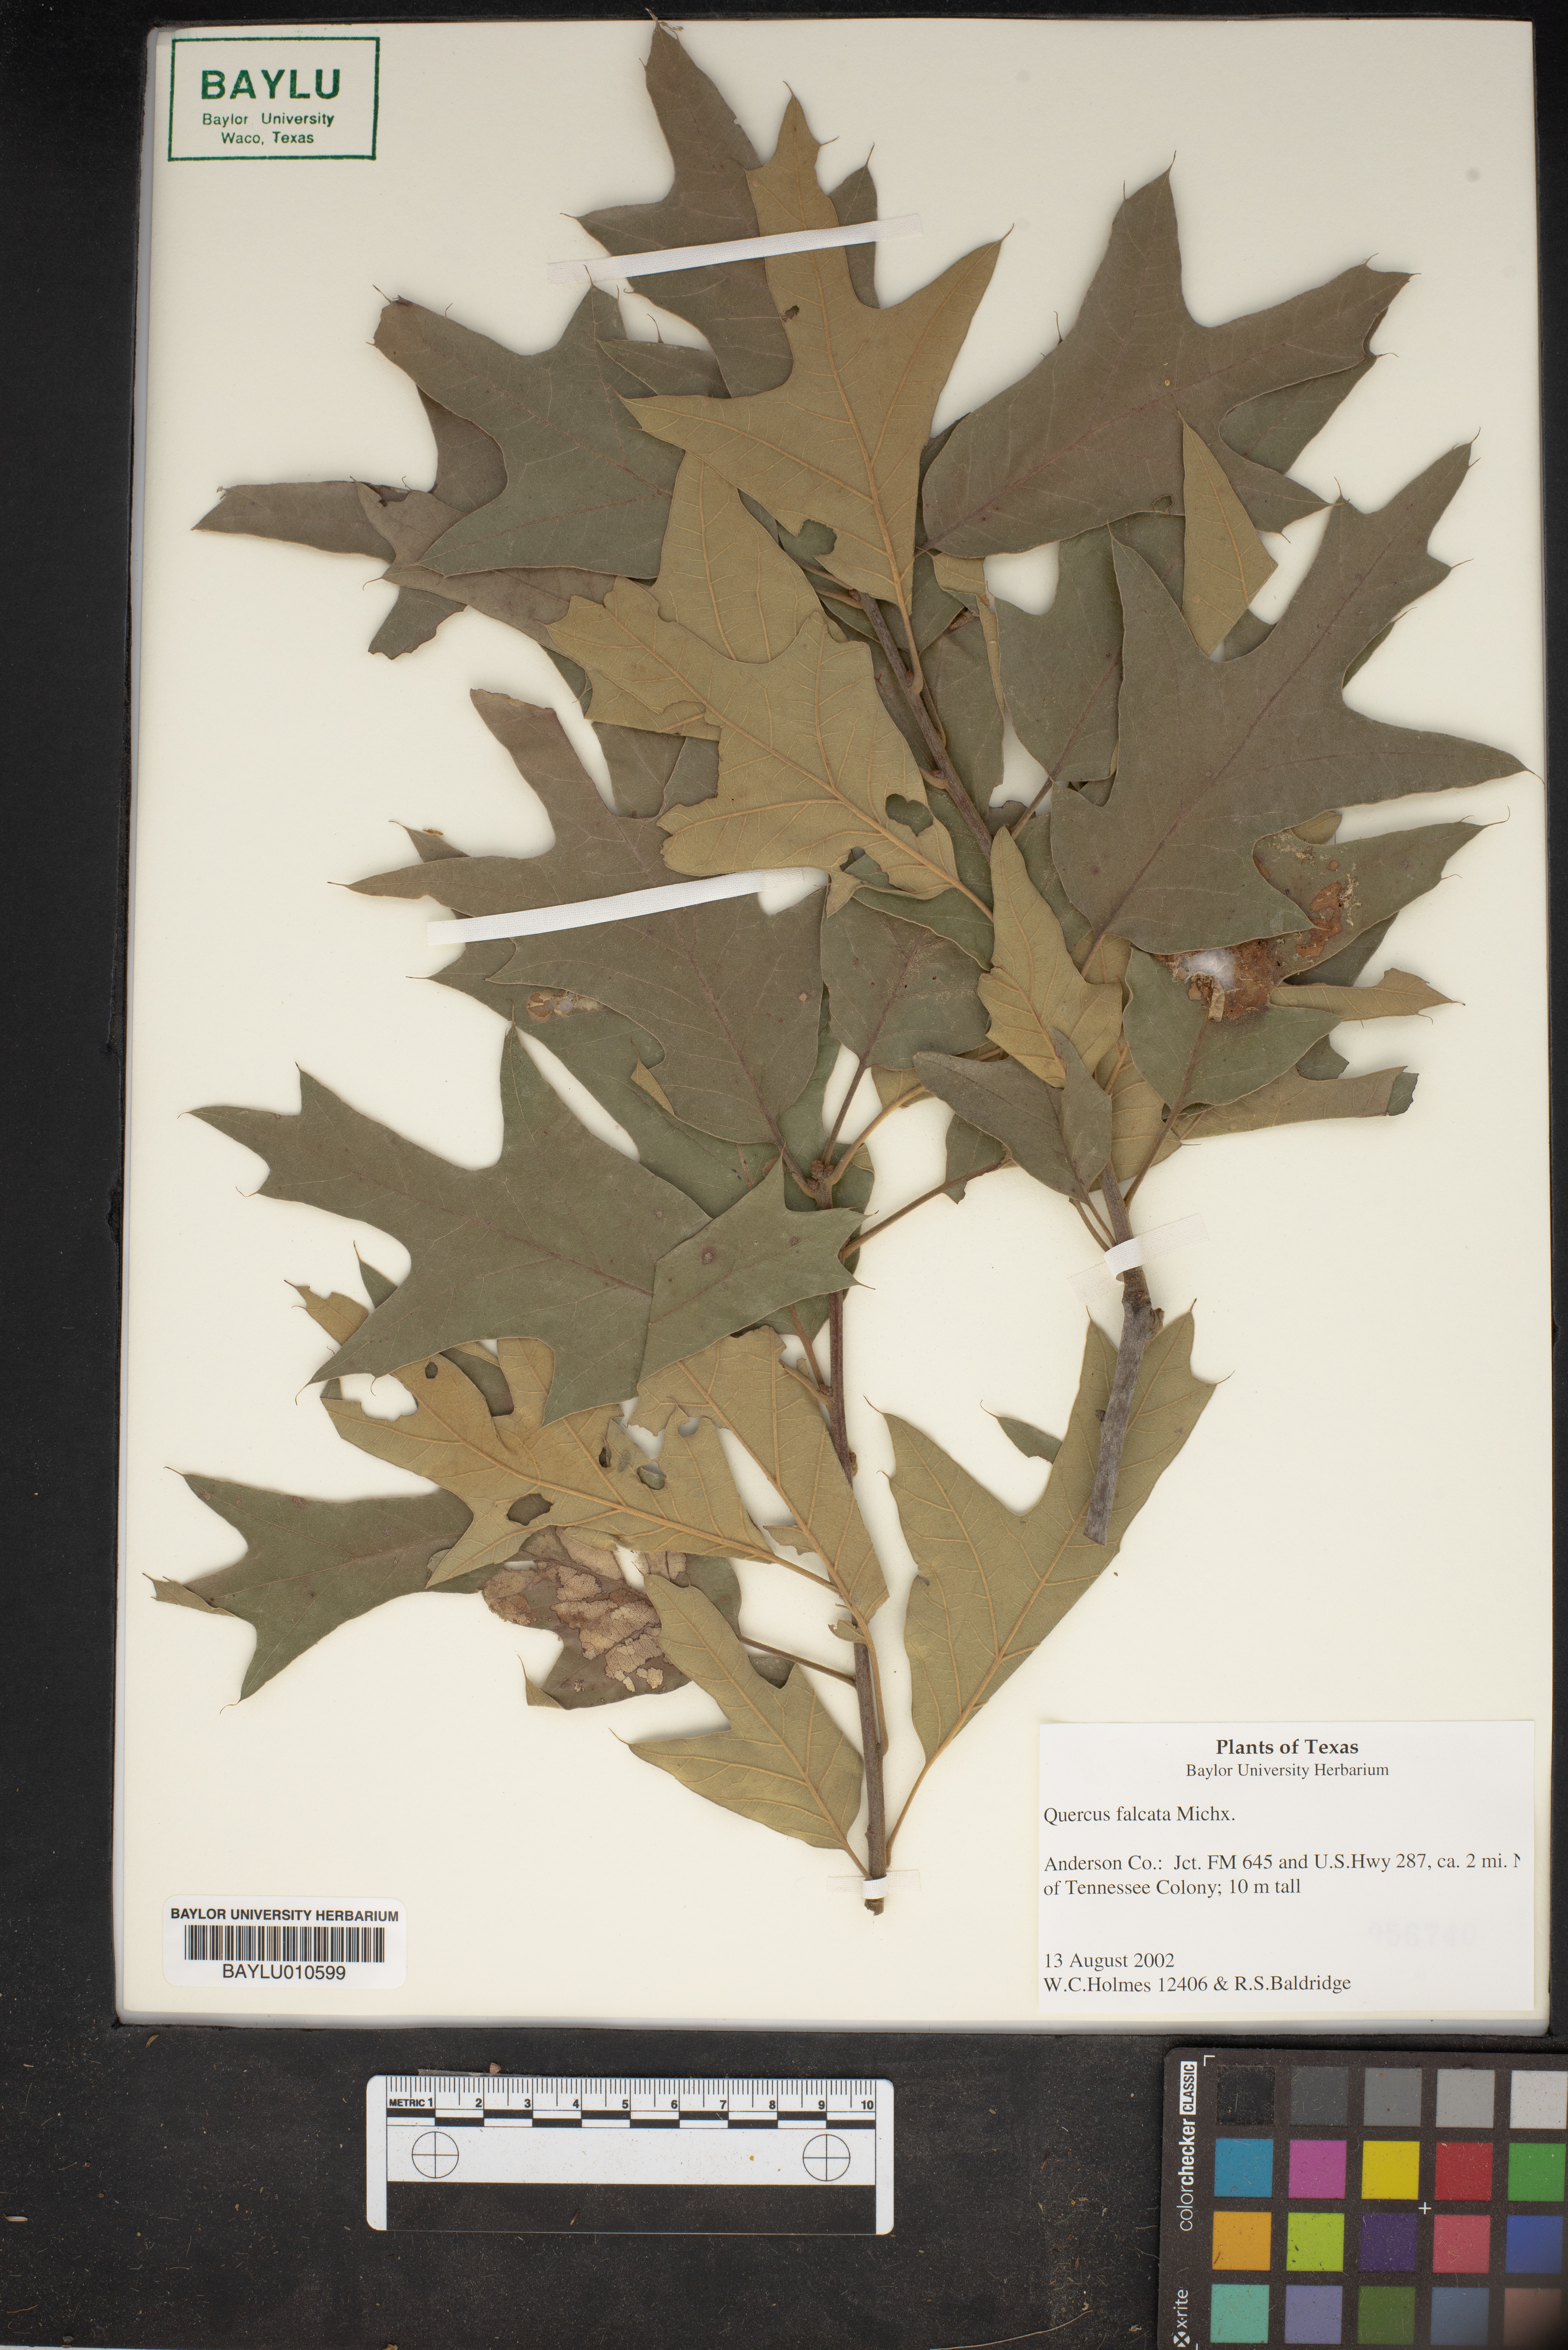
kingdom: Plantae
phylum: Tracheophyta
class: Magnoliopsida
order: Fagales
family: Fagaceae
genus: Quercus
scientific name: Quercus falcata
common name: Southern red oak
